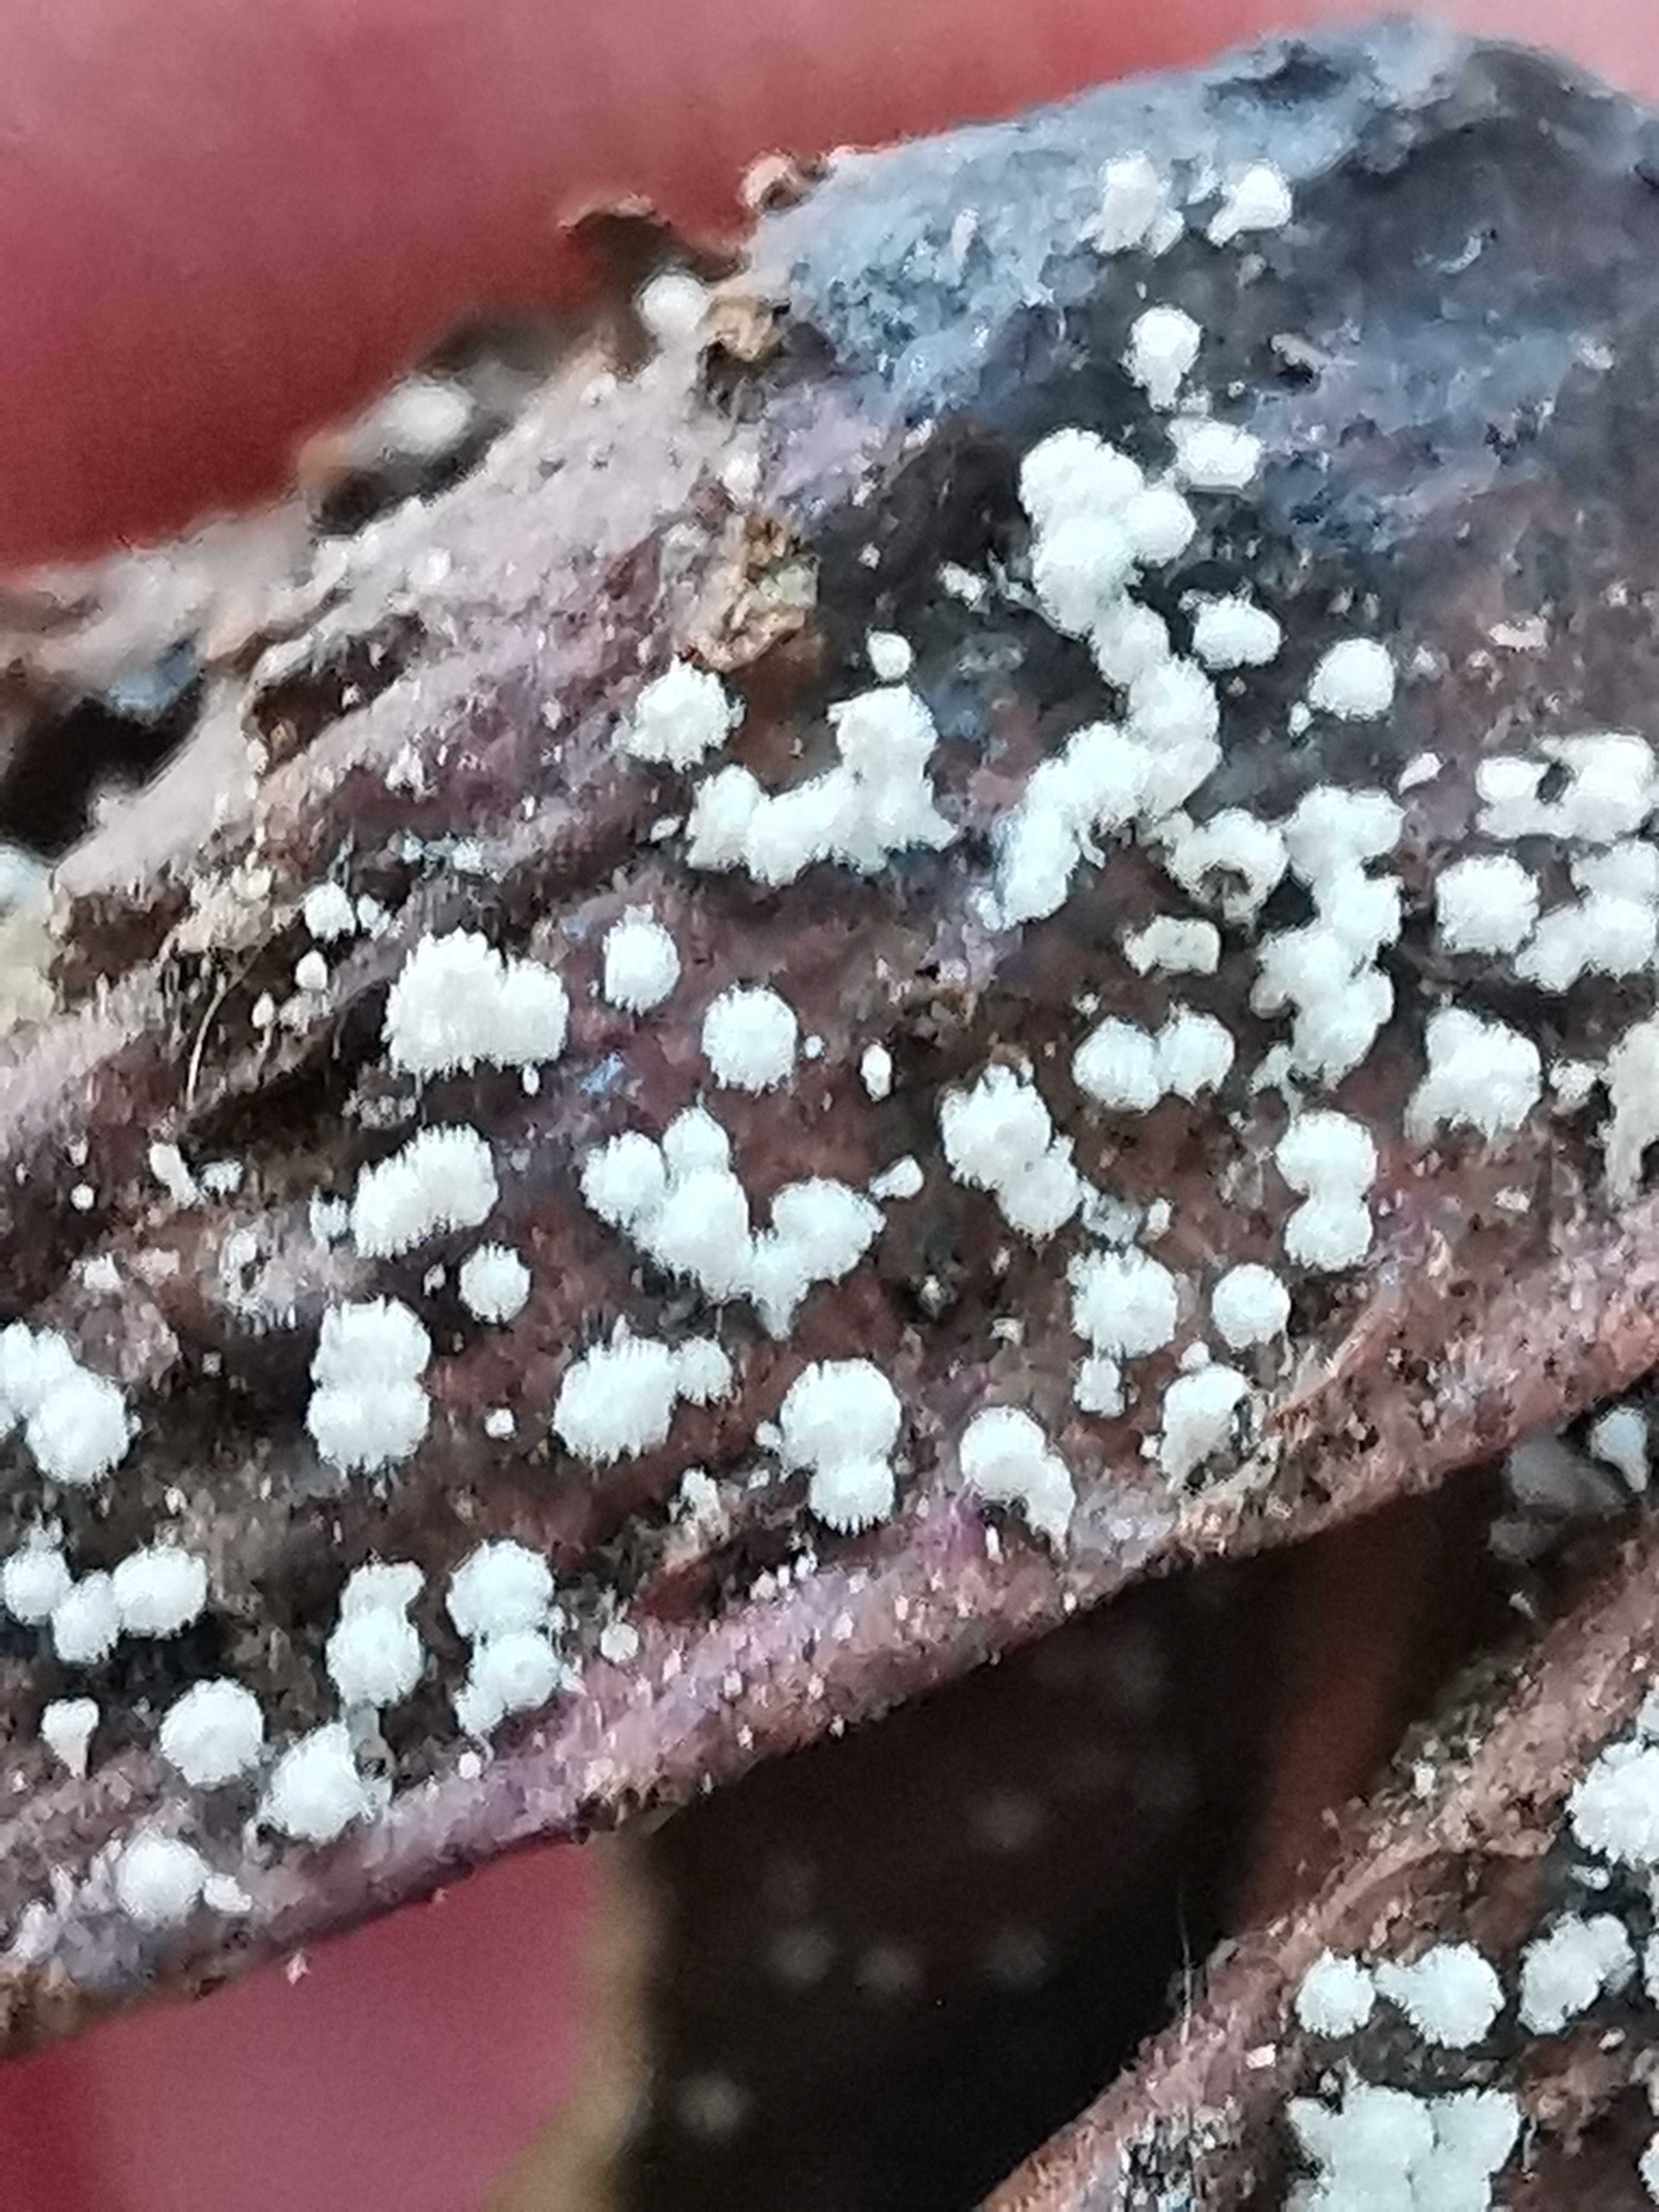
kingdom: Fungi
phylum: Ascomycota
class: Leotiomycetes
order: Helotiales
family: Lachnaceae
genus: Lachnum
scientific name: Lachnum virgineum
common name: jomfru-frynseskive
